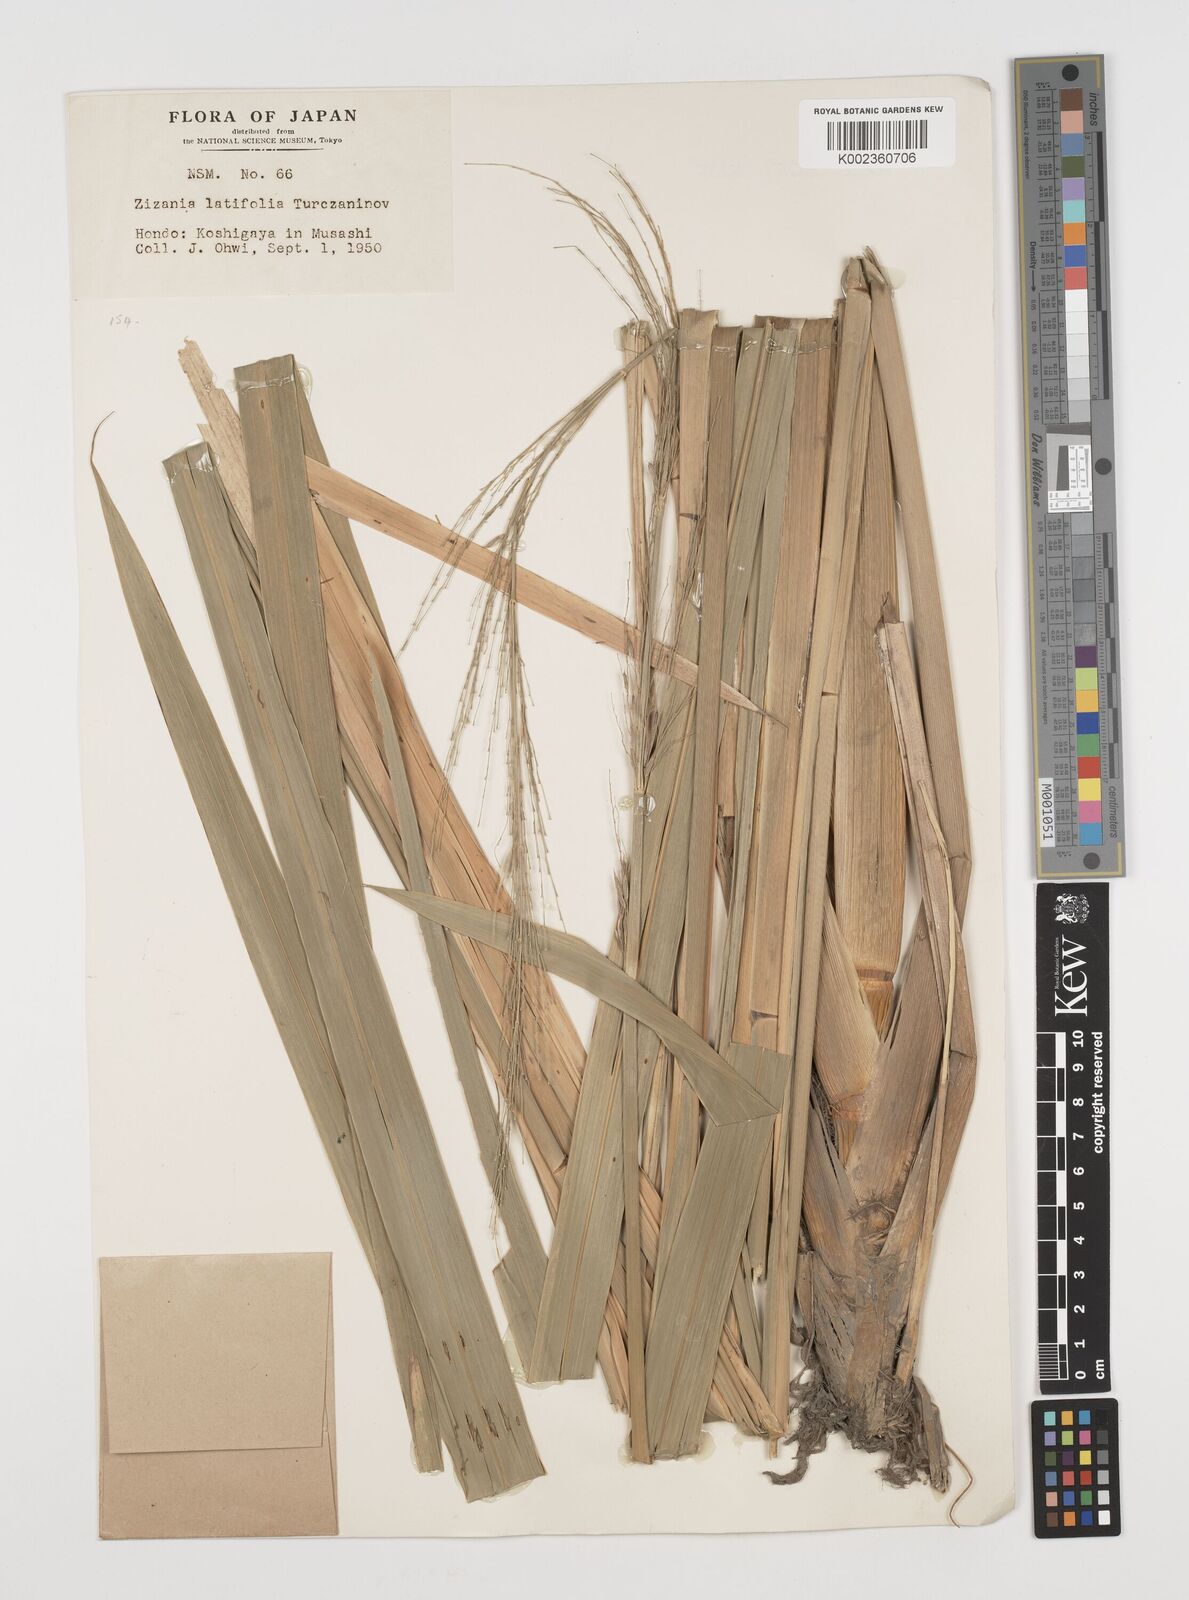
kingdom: Plantae
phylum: Tracheophyta
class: Liliopsida
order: Poales
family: Poaceae
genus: Zizania
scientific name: Zizania latifolia
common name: Manchurian wildrice
